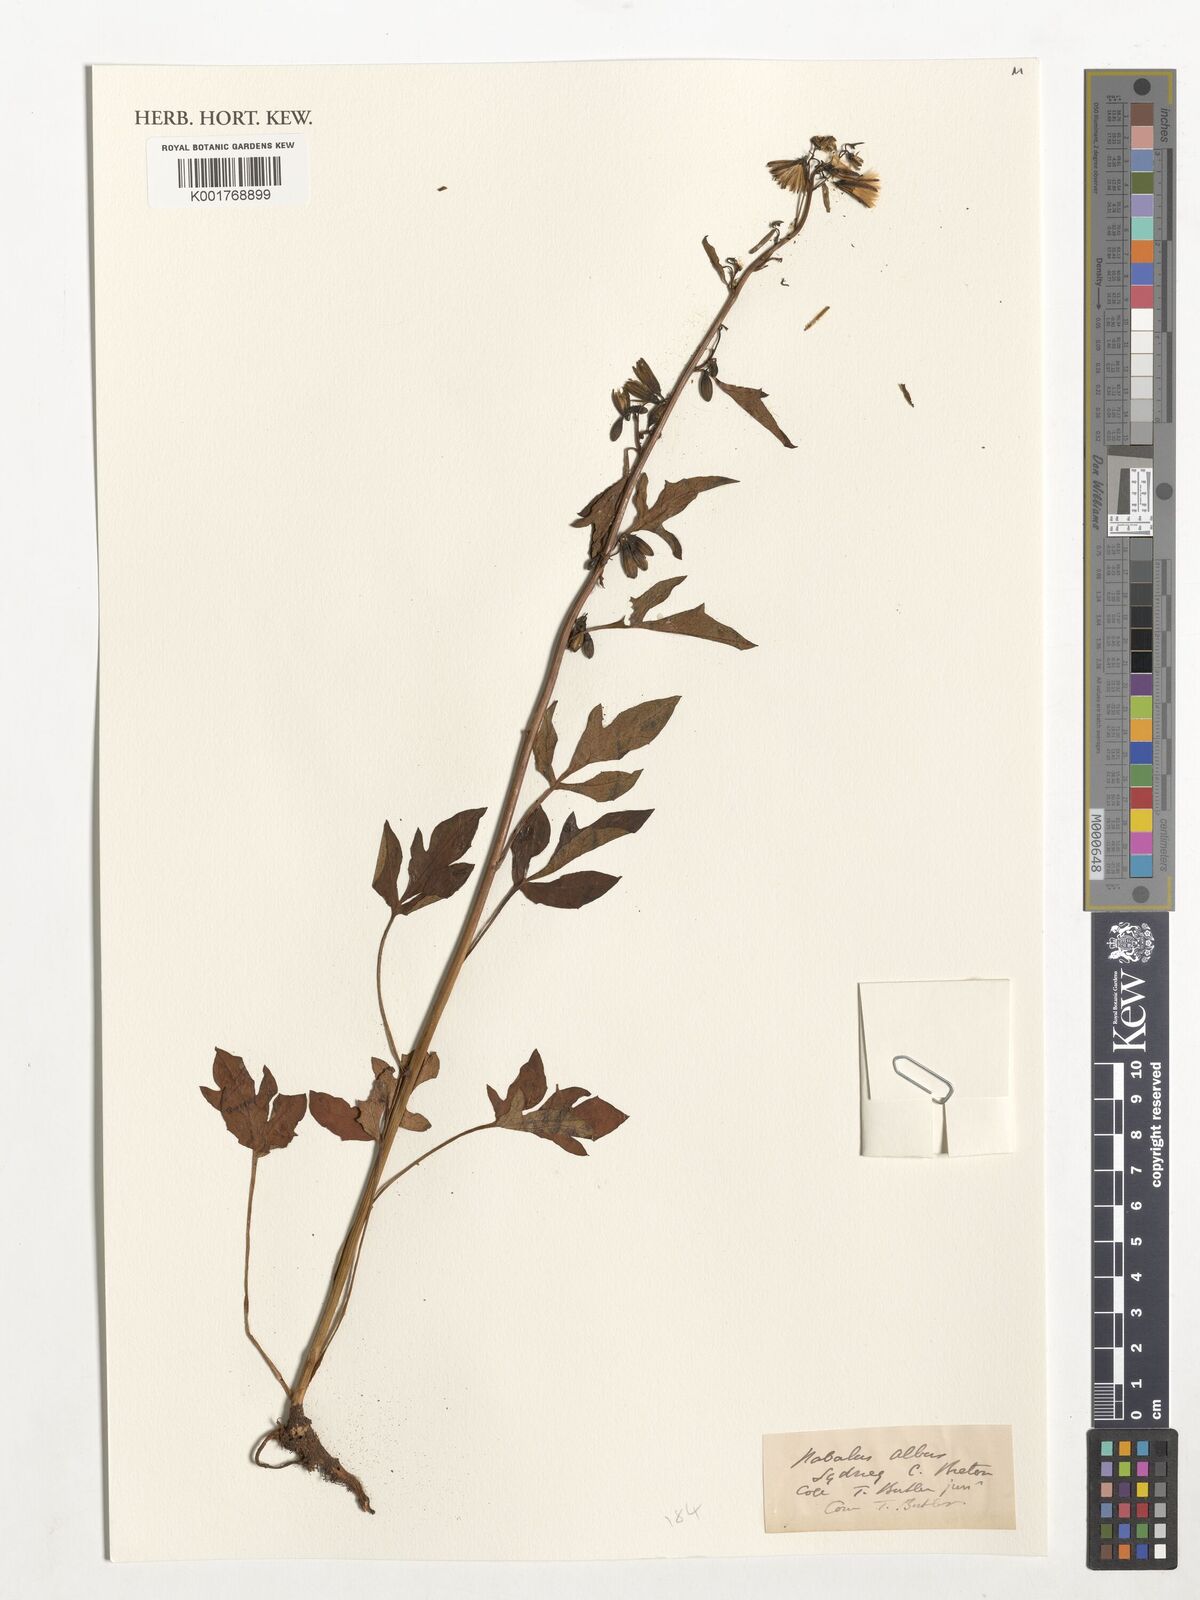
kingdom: Plantae
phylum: Tracheophyta
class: Magnoliopsida
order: Asterales
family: Asteraceae
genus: Nabalus
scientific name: Nabalus albus
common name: White rattlesnakeroot
